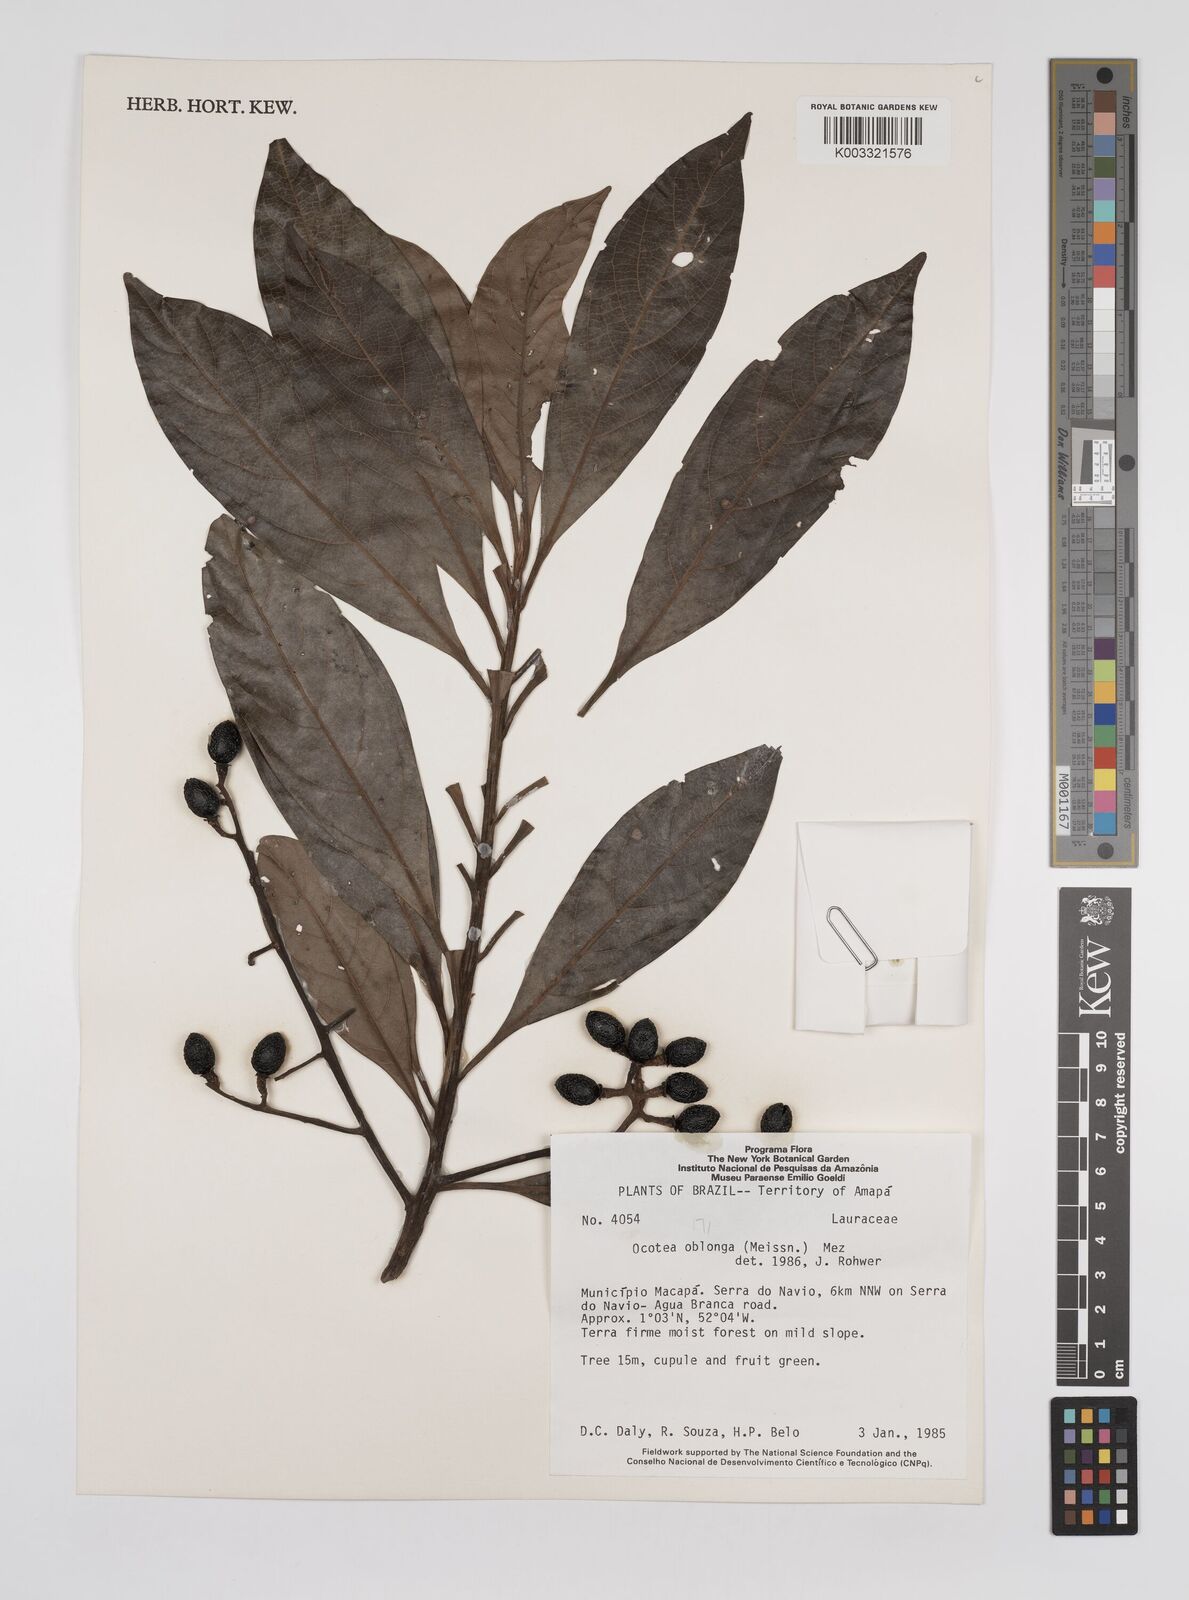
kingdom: Plantae
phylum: Tracheophyta
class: Magnoliopsida
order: Laurales
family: Lauraceae
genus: Ocotea
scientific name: Ocotea oblonga
